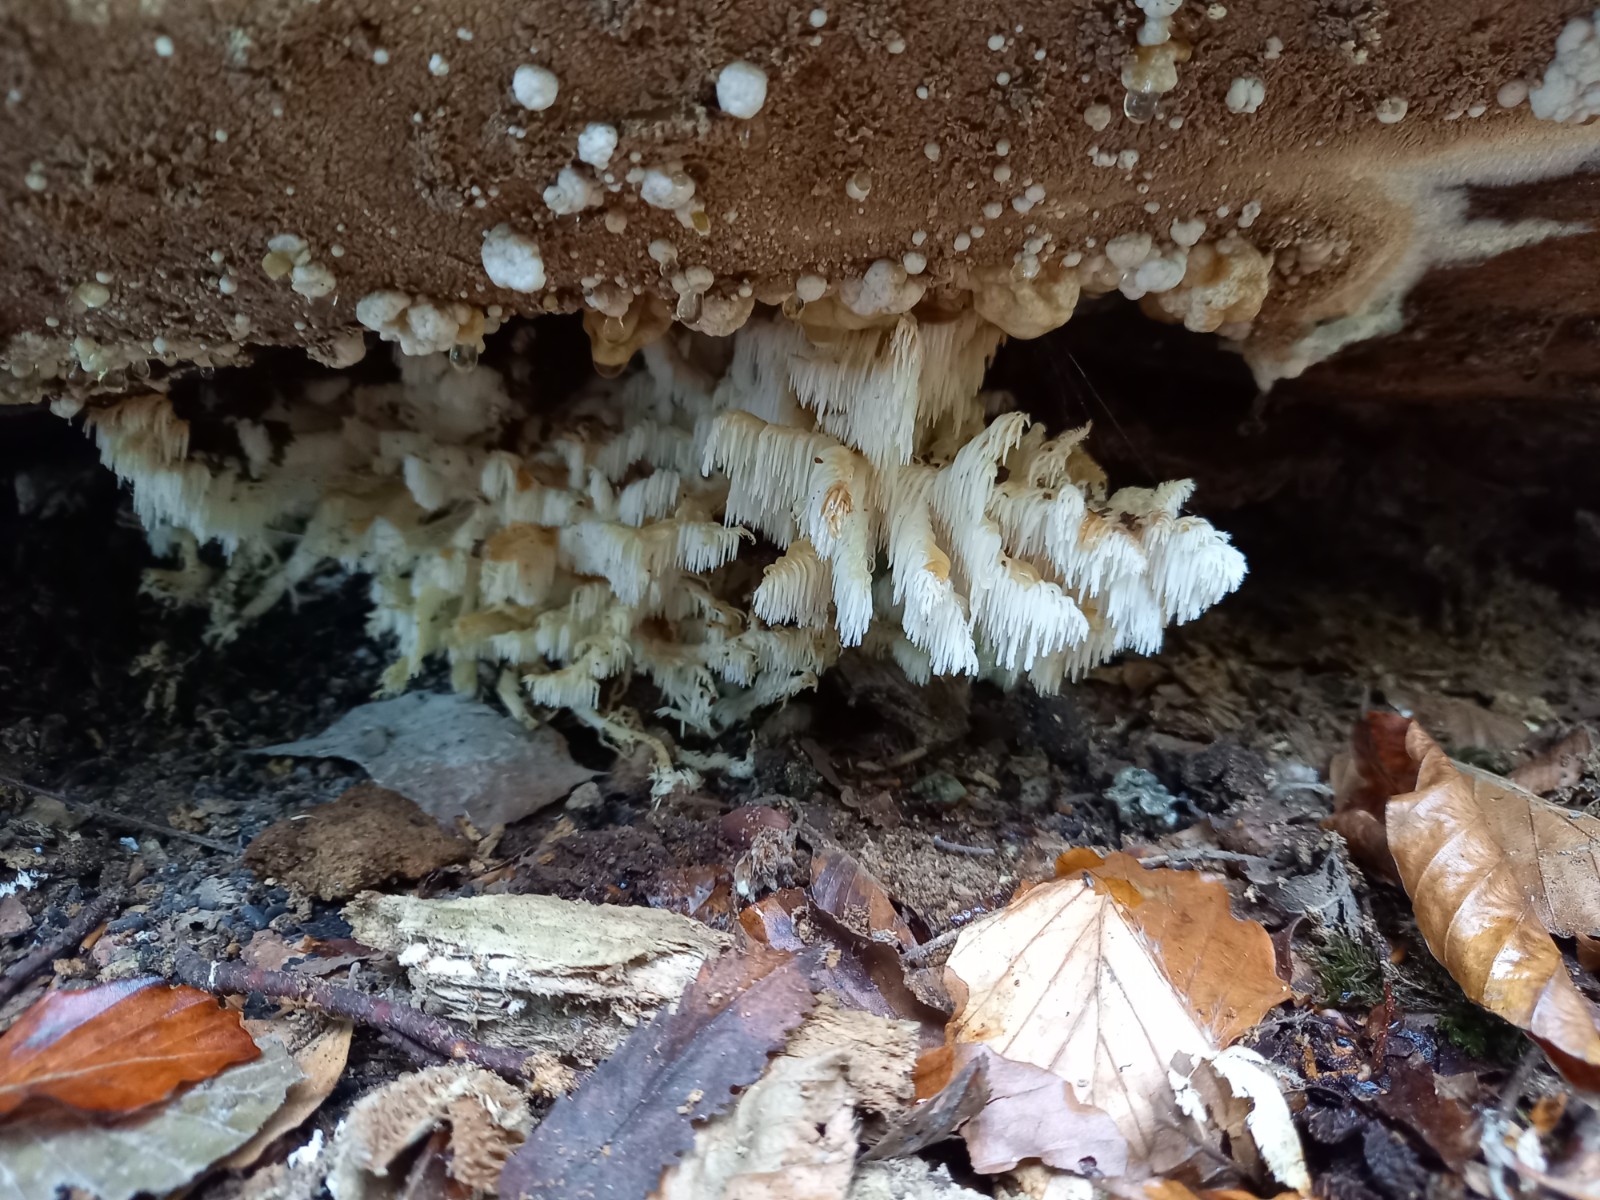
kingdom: Fungi
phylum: Basidiomycota
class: Agaricomycetes
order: Russulales
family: Hericiaceae
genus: Hericium
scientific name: Hericium coralloides
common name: koralpigsvamp
